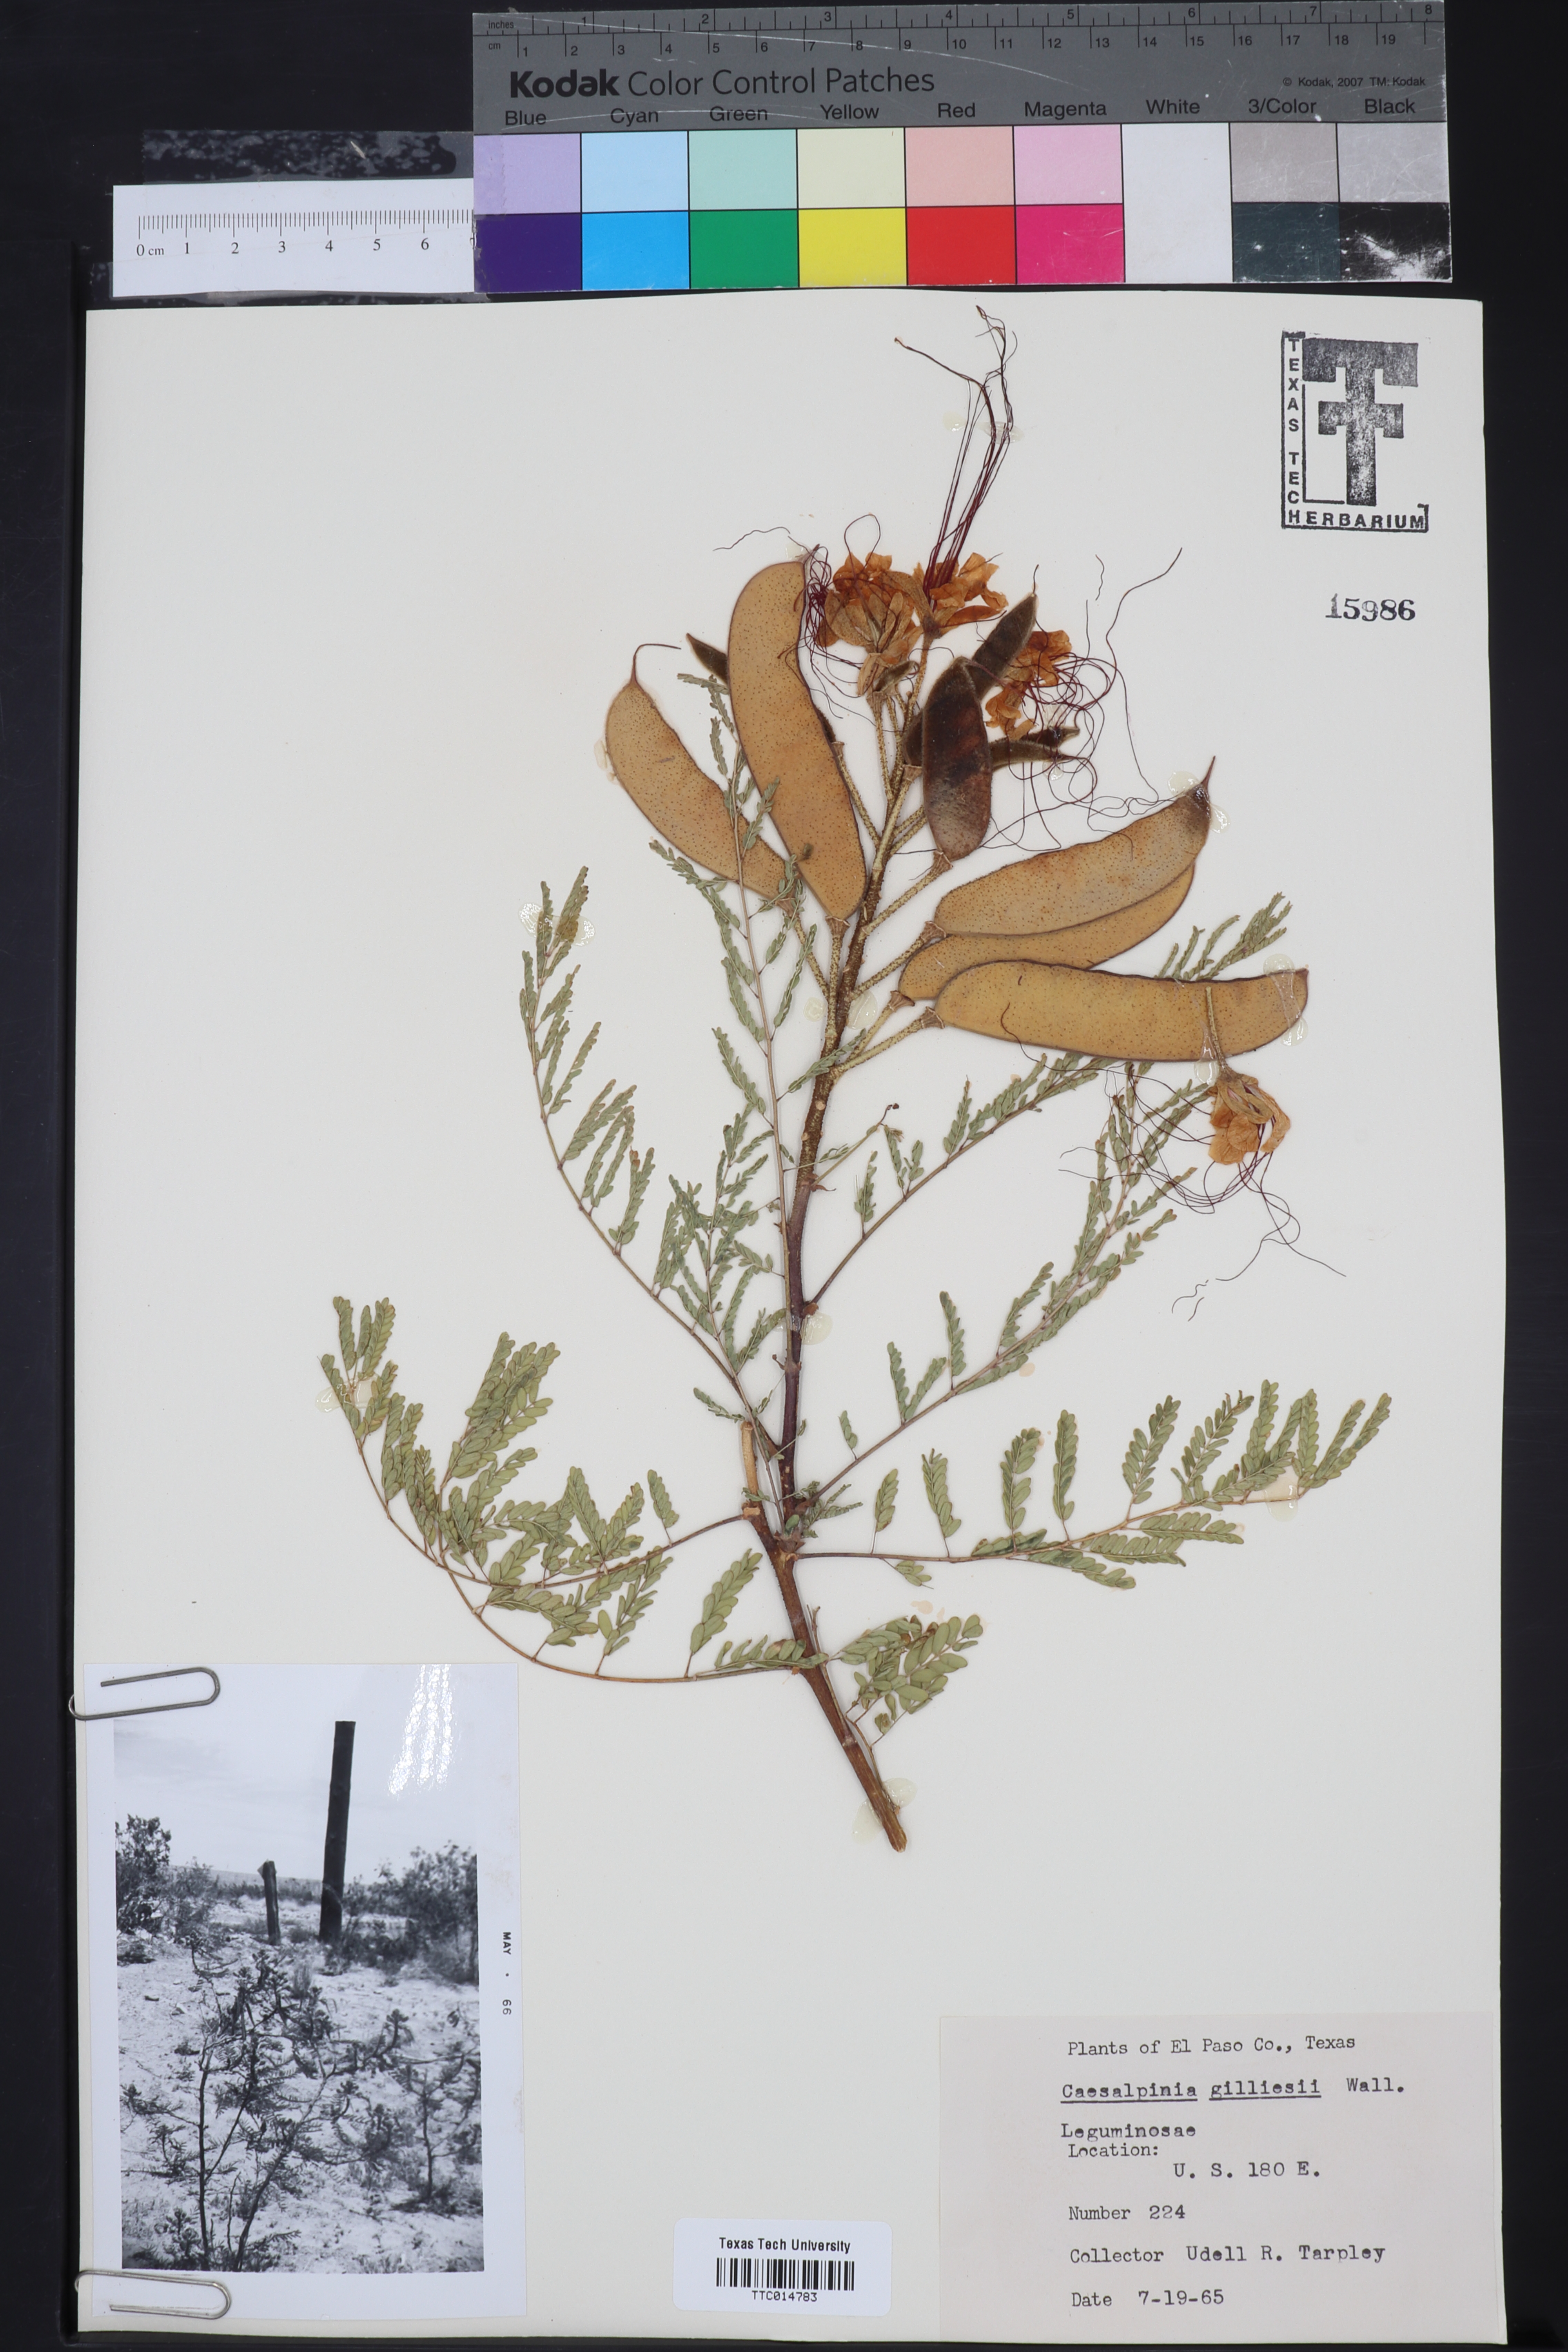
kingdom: Plantae
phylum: Tracheophyta
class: Magnoliopsida
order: Fabales
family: Fabaceae
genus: Erythrostemon
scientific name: Erythrostemon gilliesii
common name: Bird-of-paradise shrub
